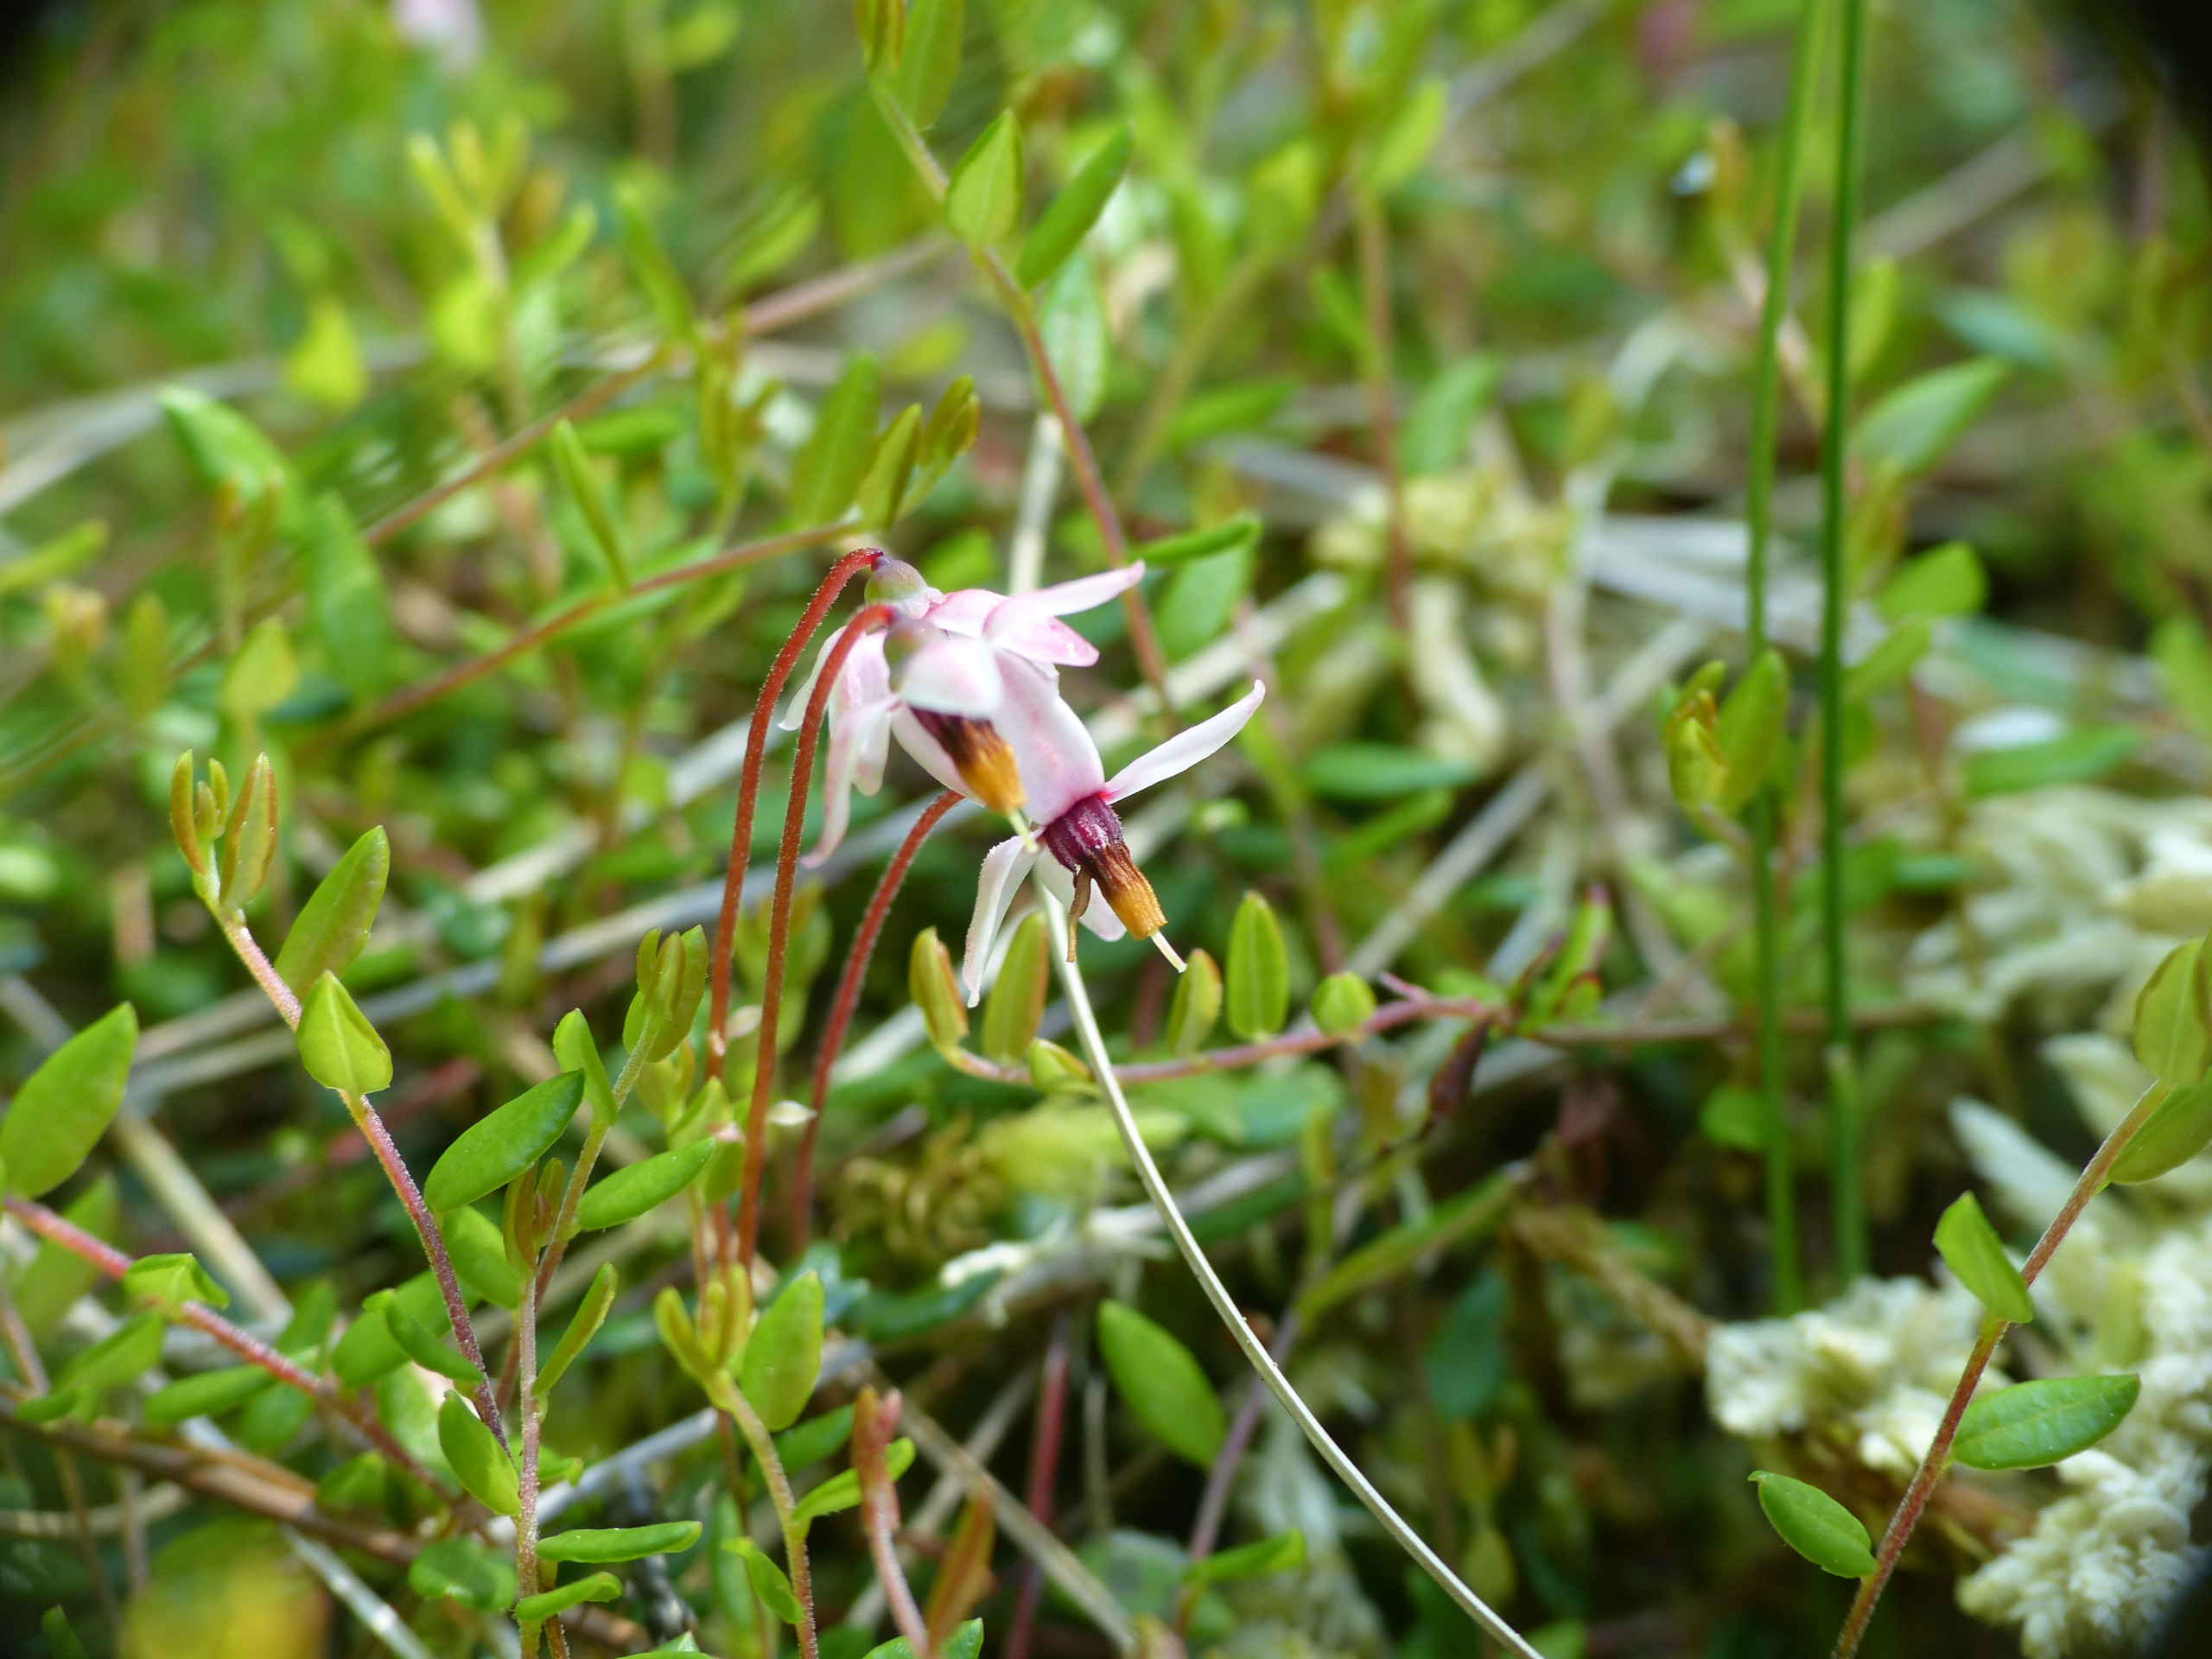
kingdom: Plantae
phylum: Tracheophyta
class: Magnoliopsida
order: Ericales
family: Ericaceae
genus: Vaccinium
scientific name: Vaccinium oxycoccos
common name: Tranebær
